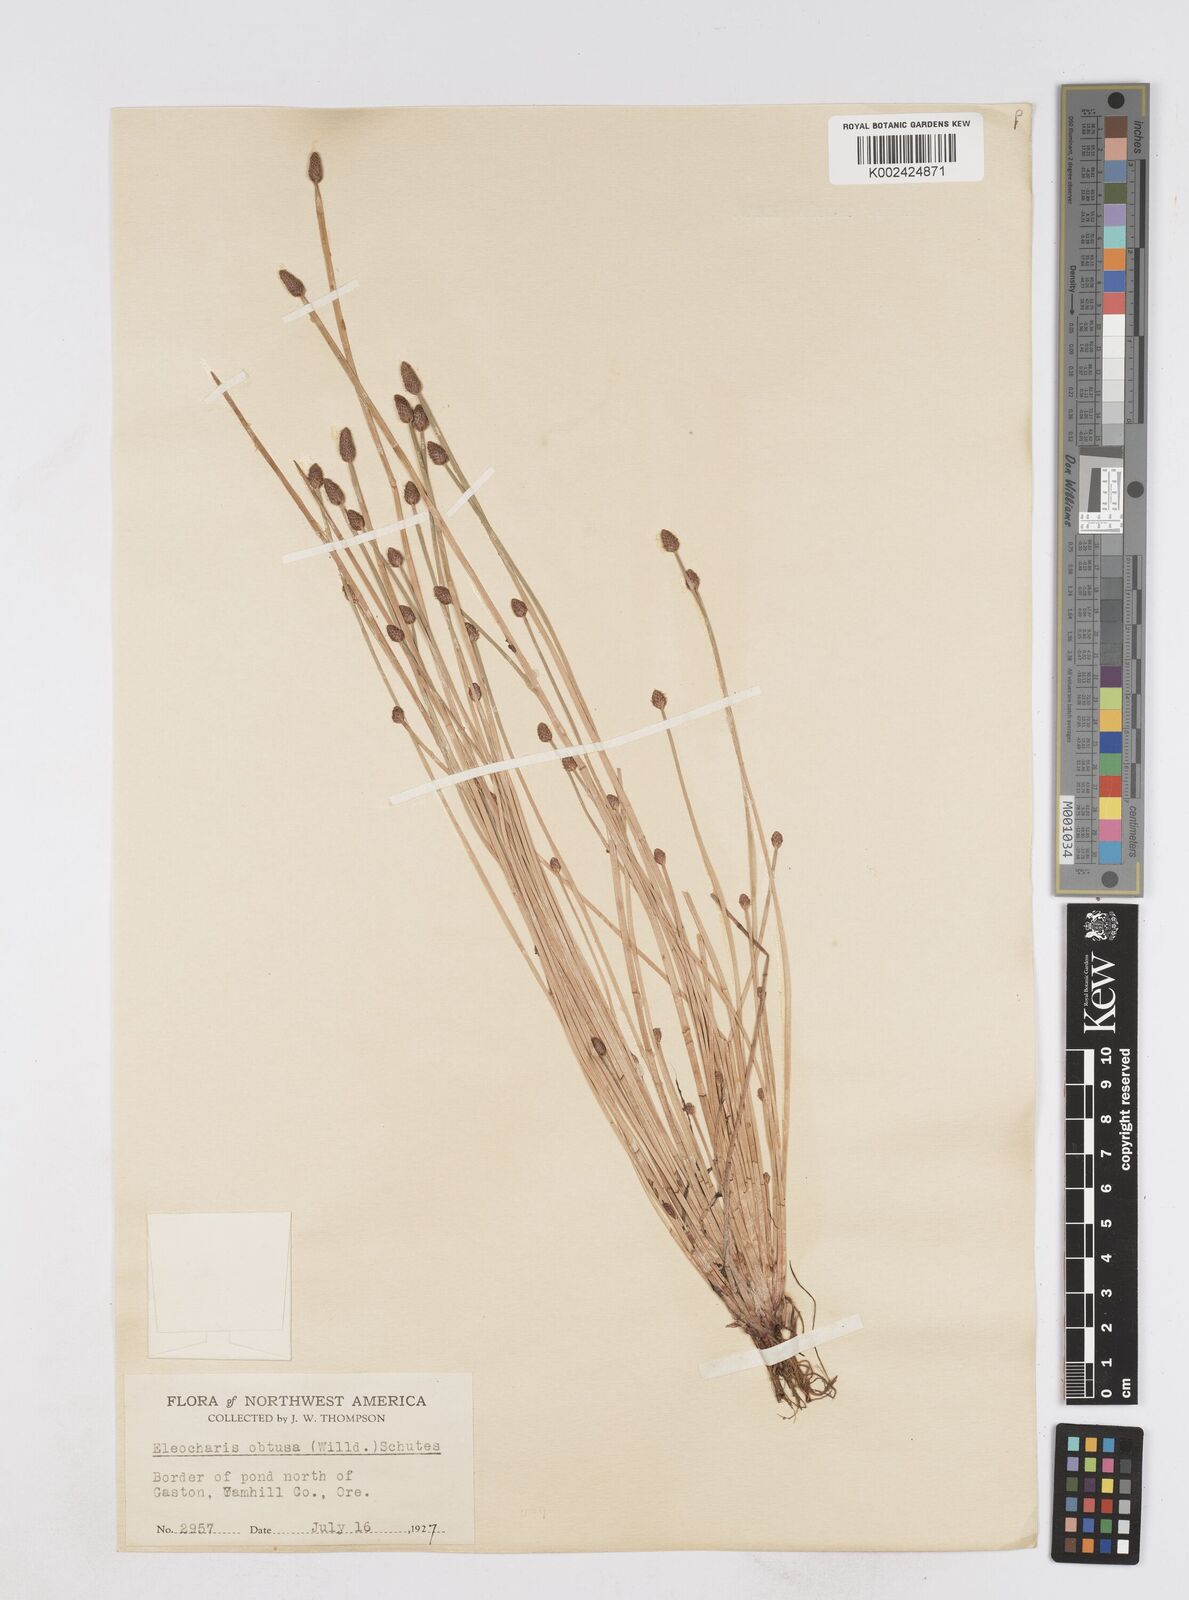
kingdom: Plantae
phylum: Tracheophyta
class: Liliopsida
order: Poales
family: Cyperaceae
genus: Eleocharis
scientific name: Eleocharis obtusa
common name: Blunt spikerush
